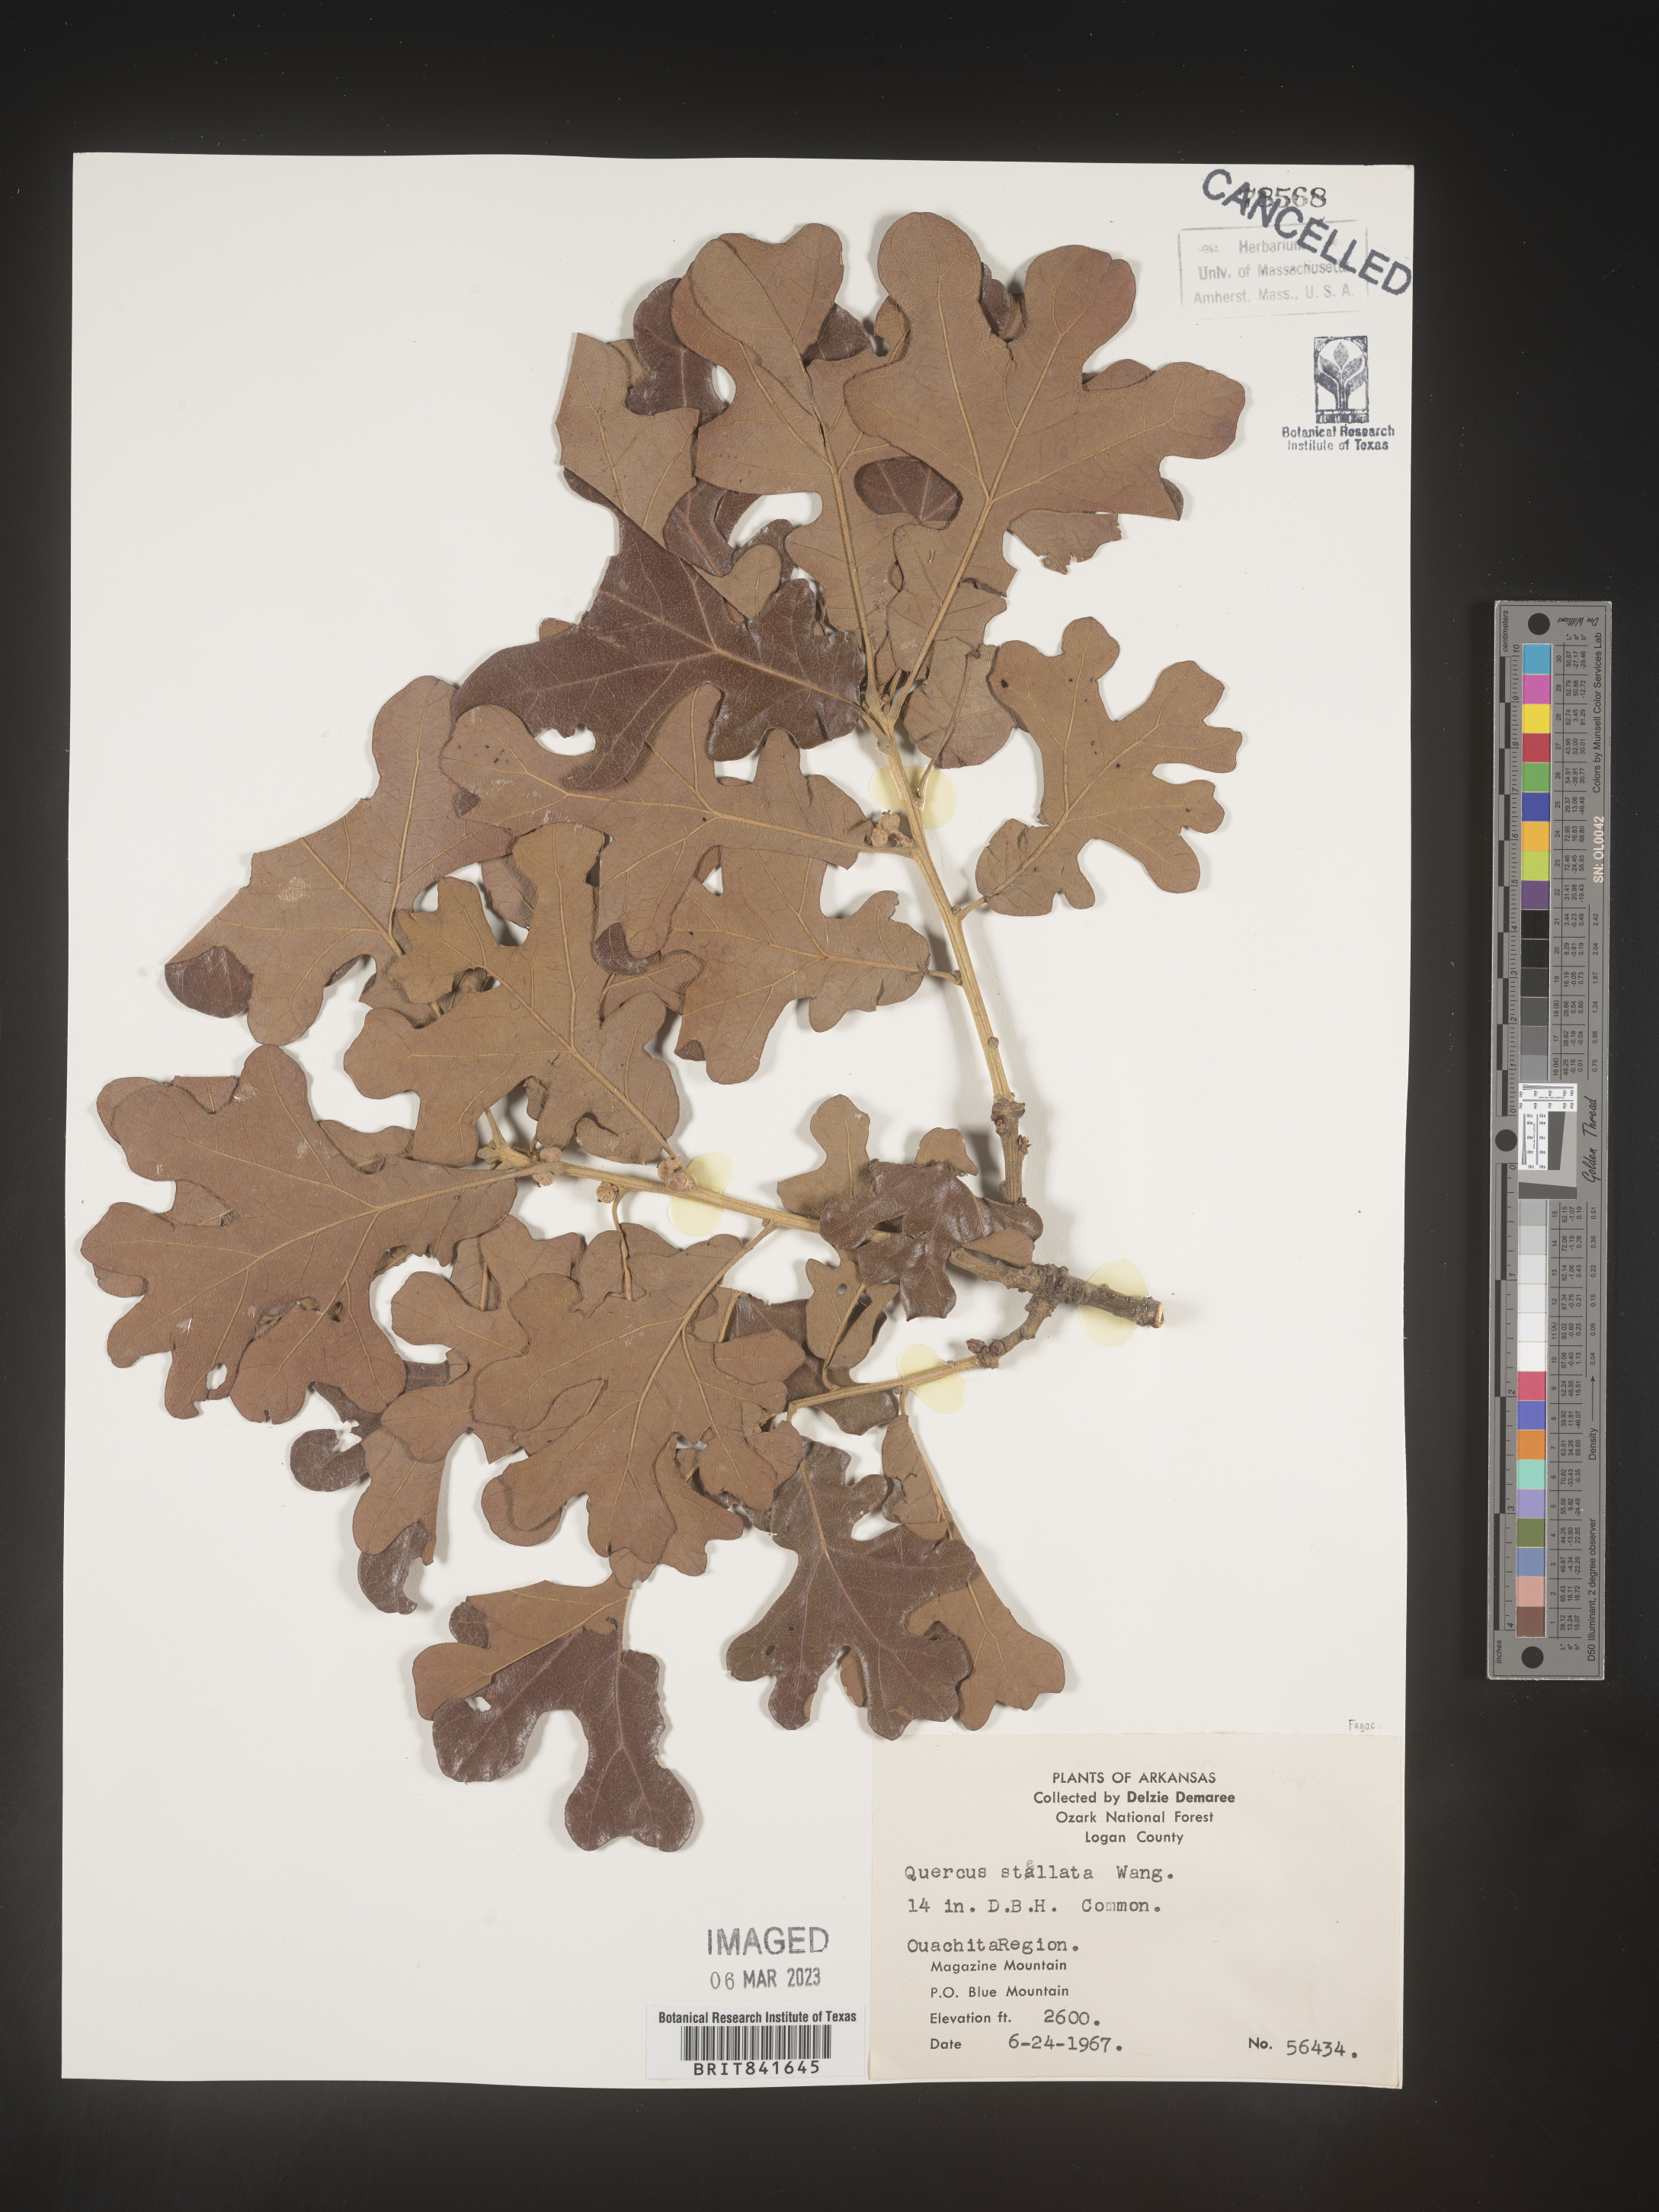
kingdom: Plantae
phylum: Tracheophyta
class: Magnoliopsida
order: Fagales
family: Fagaceae
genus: Quercus
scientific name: Quercus stellata
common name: Post oak
